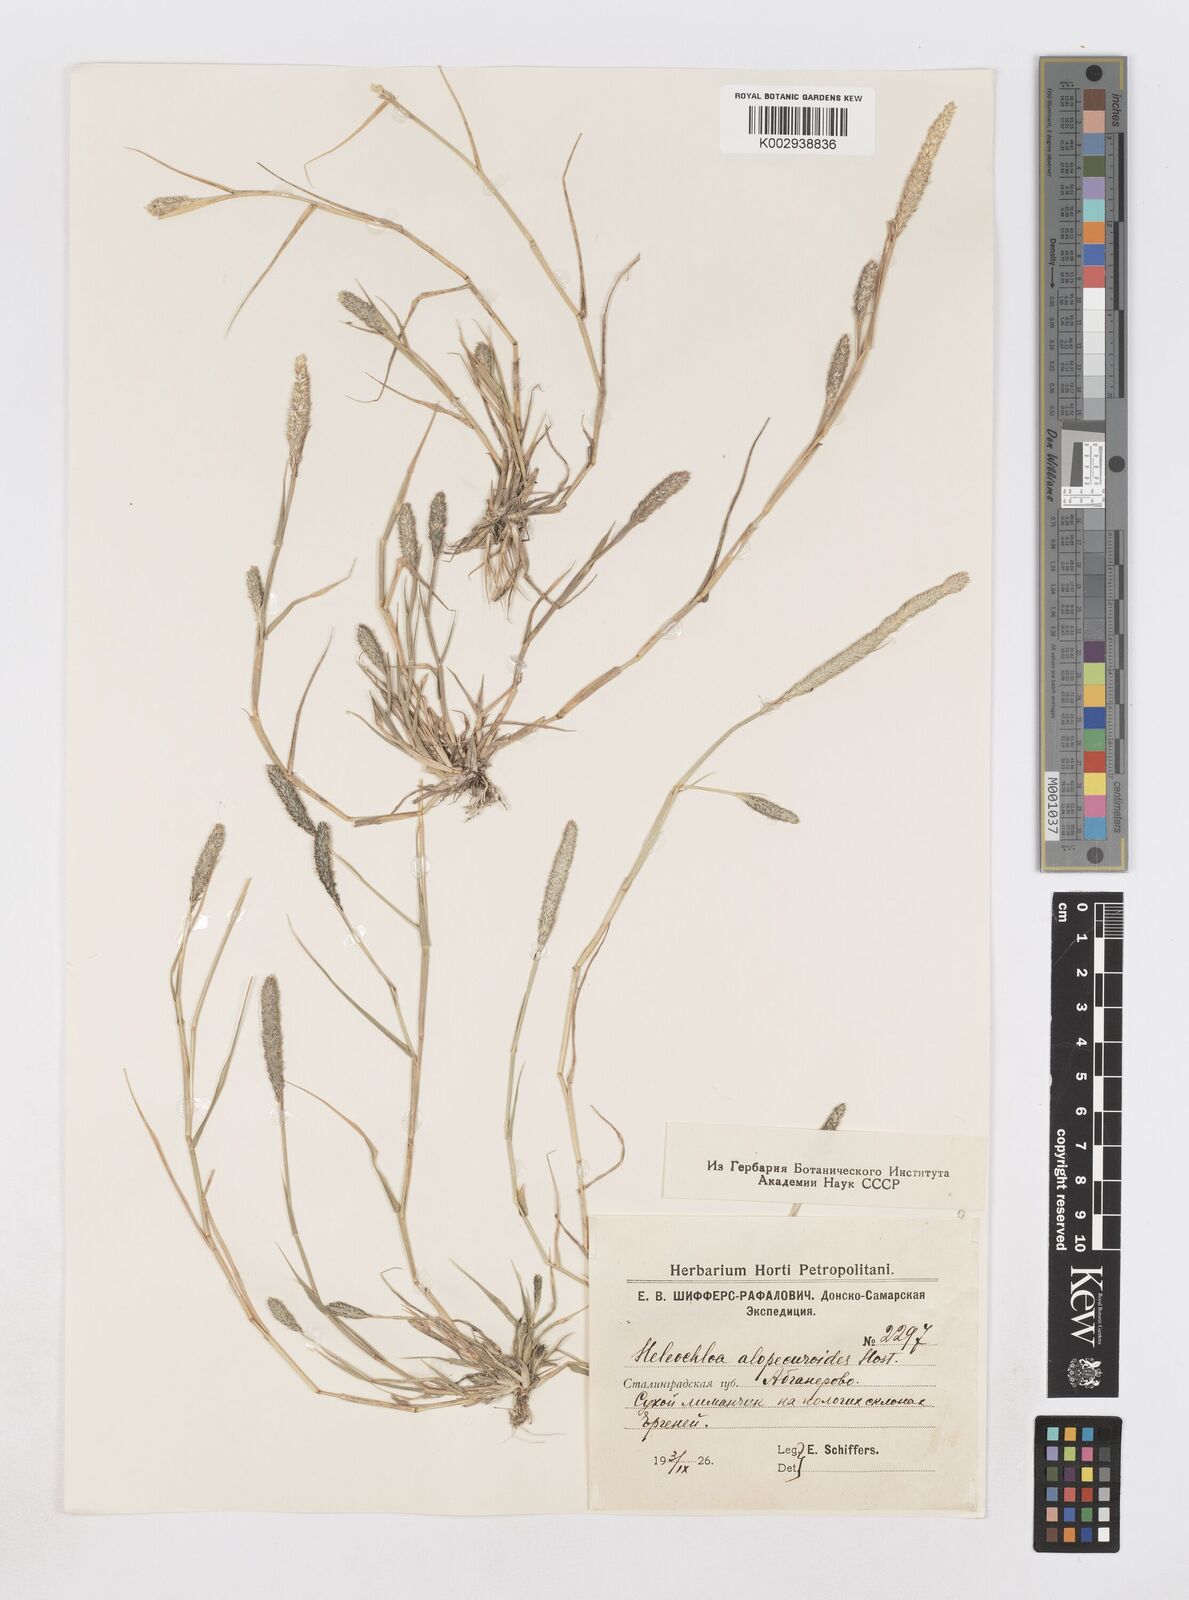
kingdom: Plantae
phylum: Tracheophyta
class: Liliopsida
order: Poales
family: Poaceae
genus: Sporobolus
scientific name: Sporobolus alopecuroides
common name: Foxtail pricklegrass
